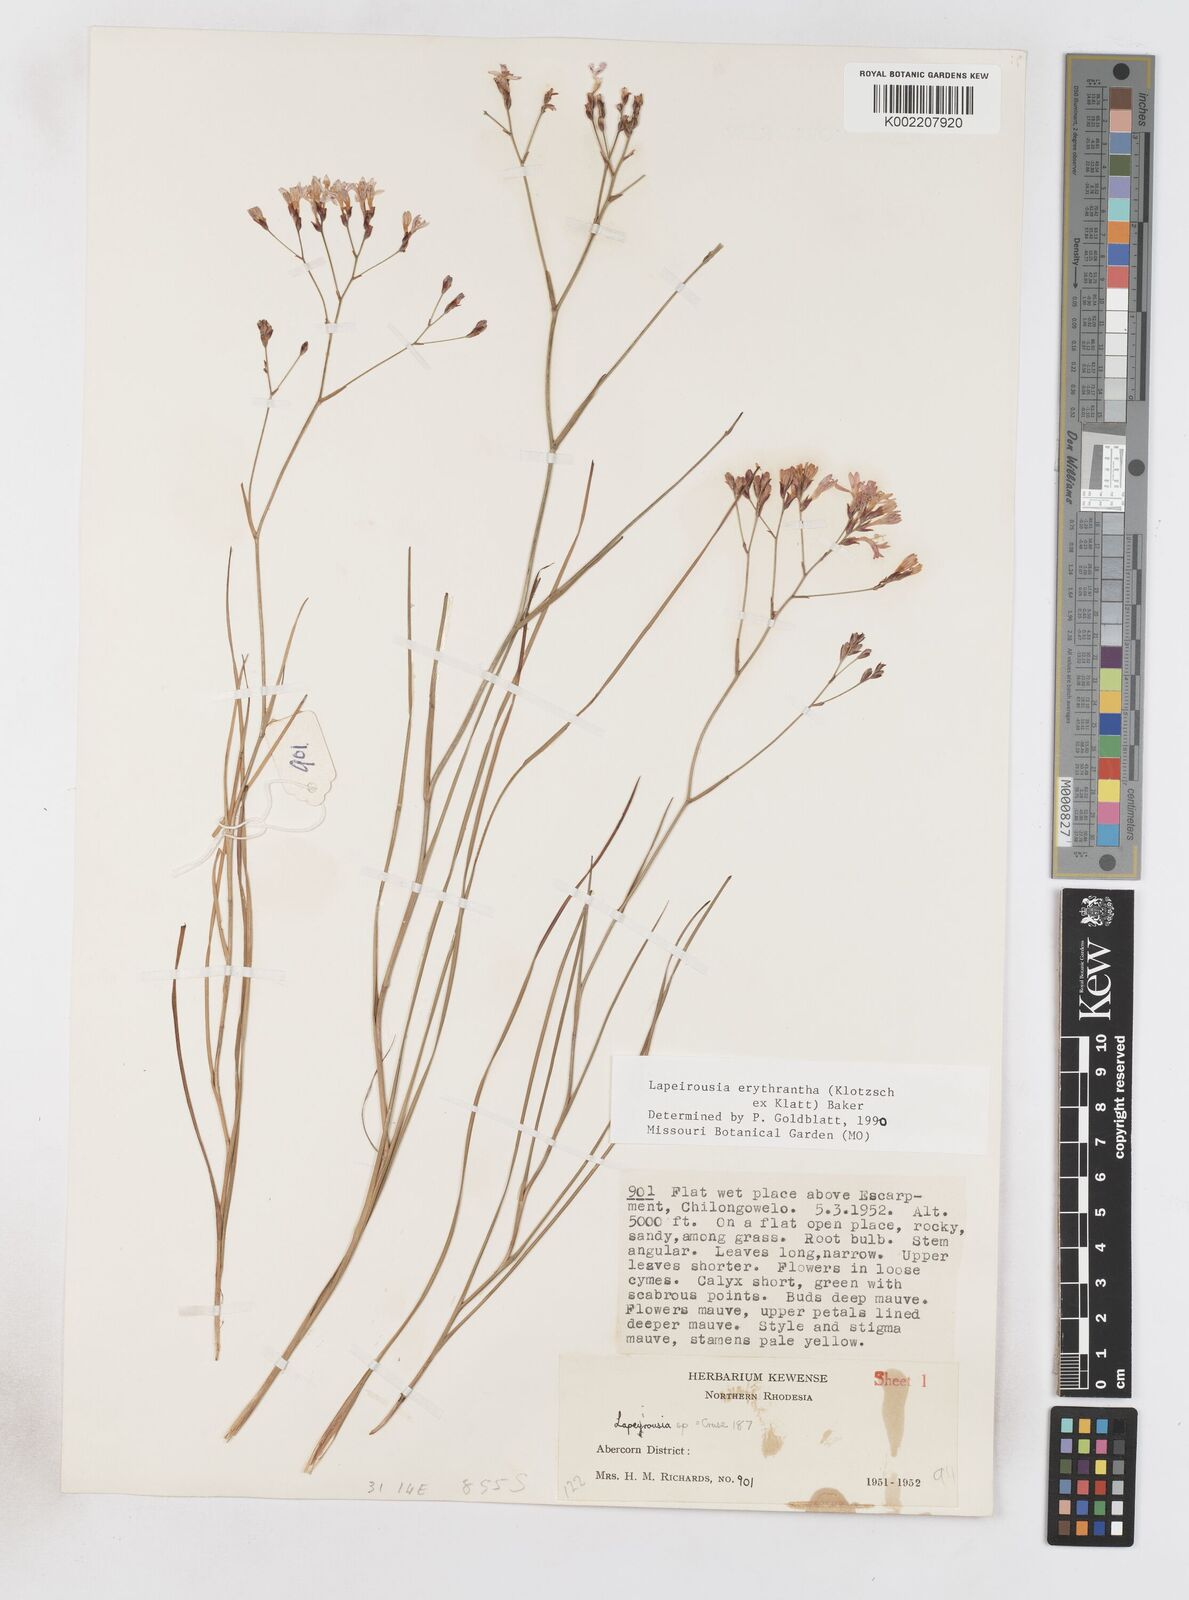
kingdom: Plantae
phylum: Tracheophyta
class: Liliopsida
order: Asparagales
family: Iridaceae
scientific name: Iridaceae
